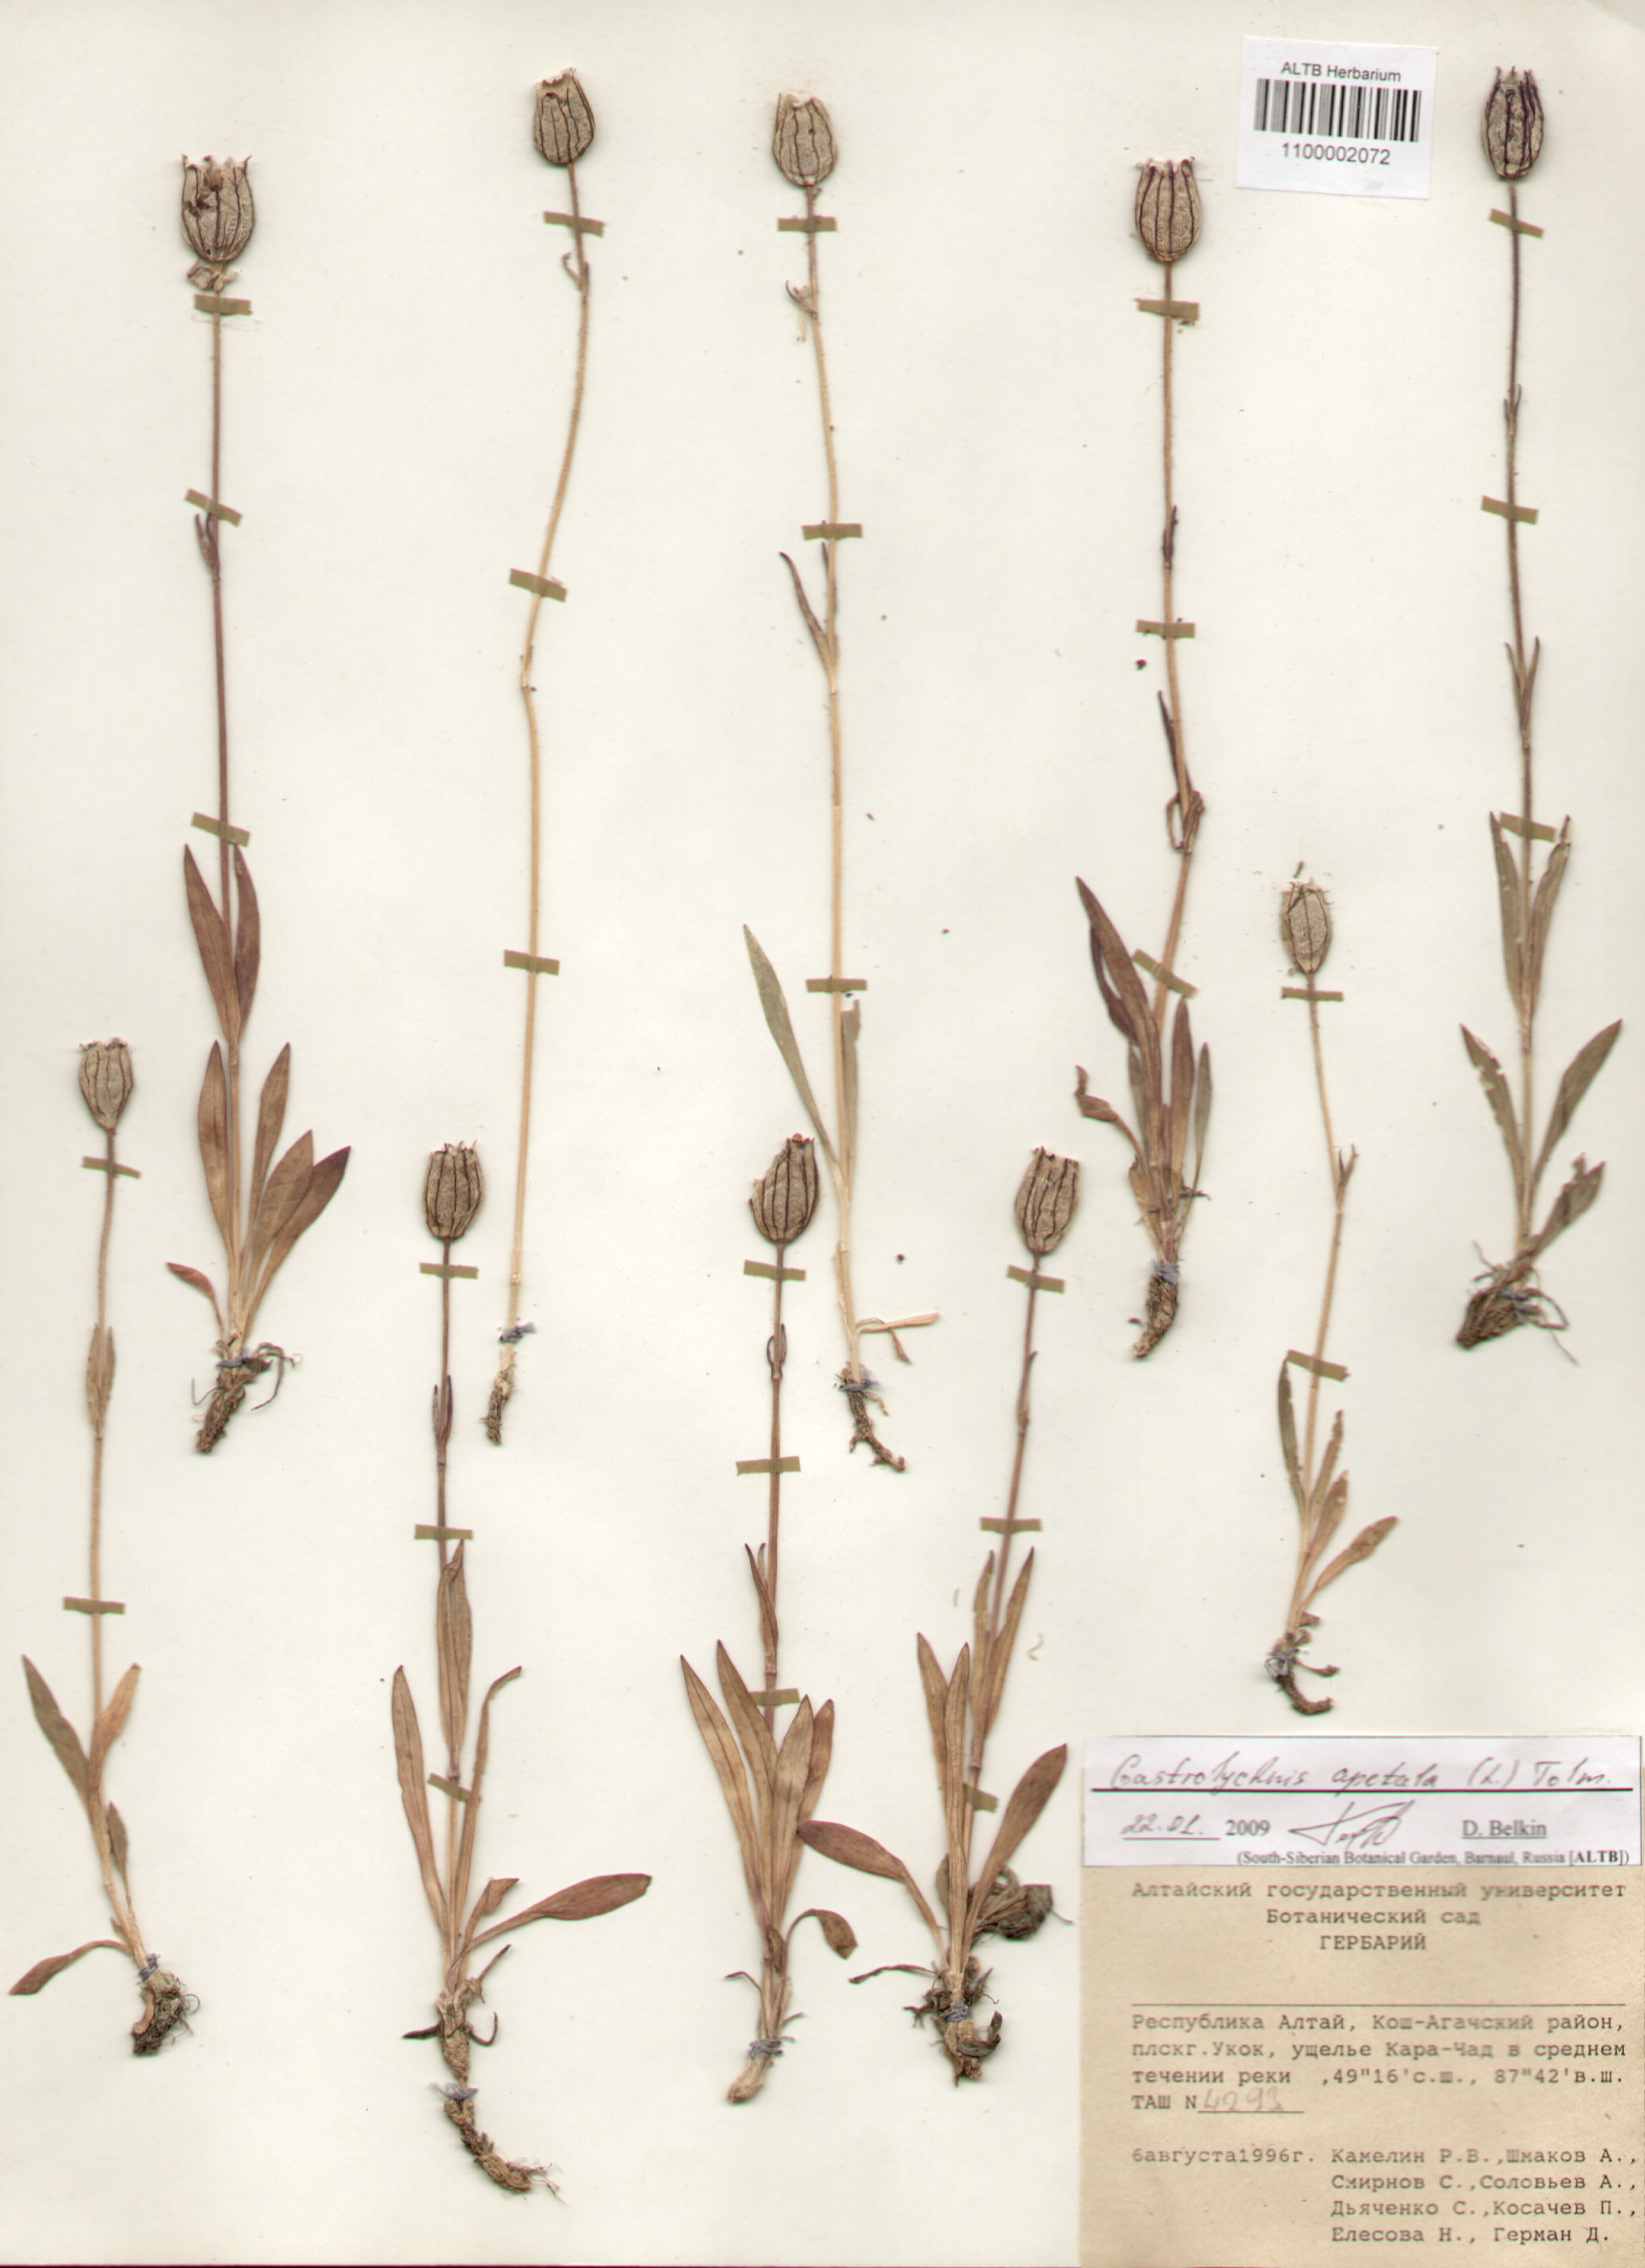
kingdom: Plantae
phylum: Tracheophyta
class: Magnoliopsida
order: Caryophyllales
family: Caryophyllaceae
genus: Silene
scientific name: Silene wahlbergella
